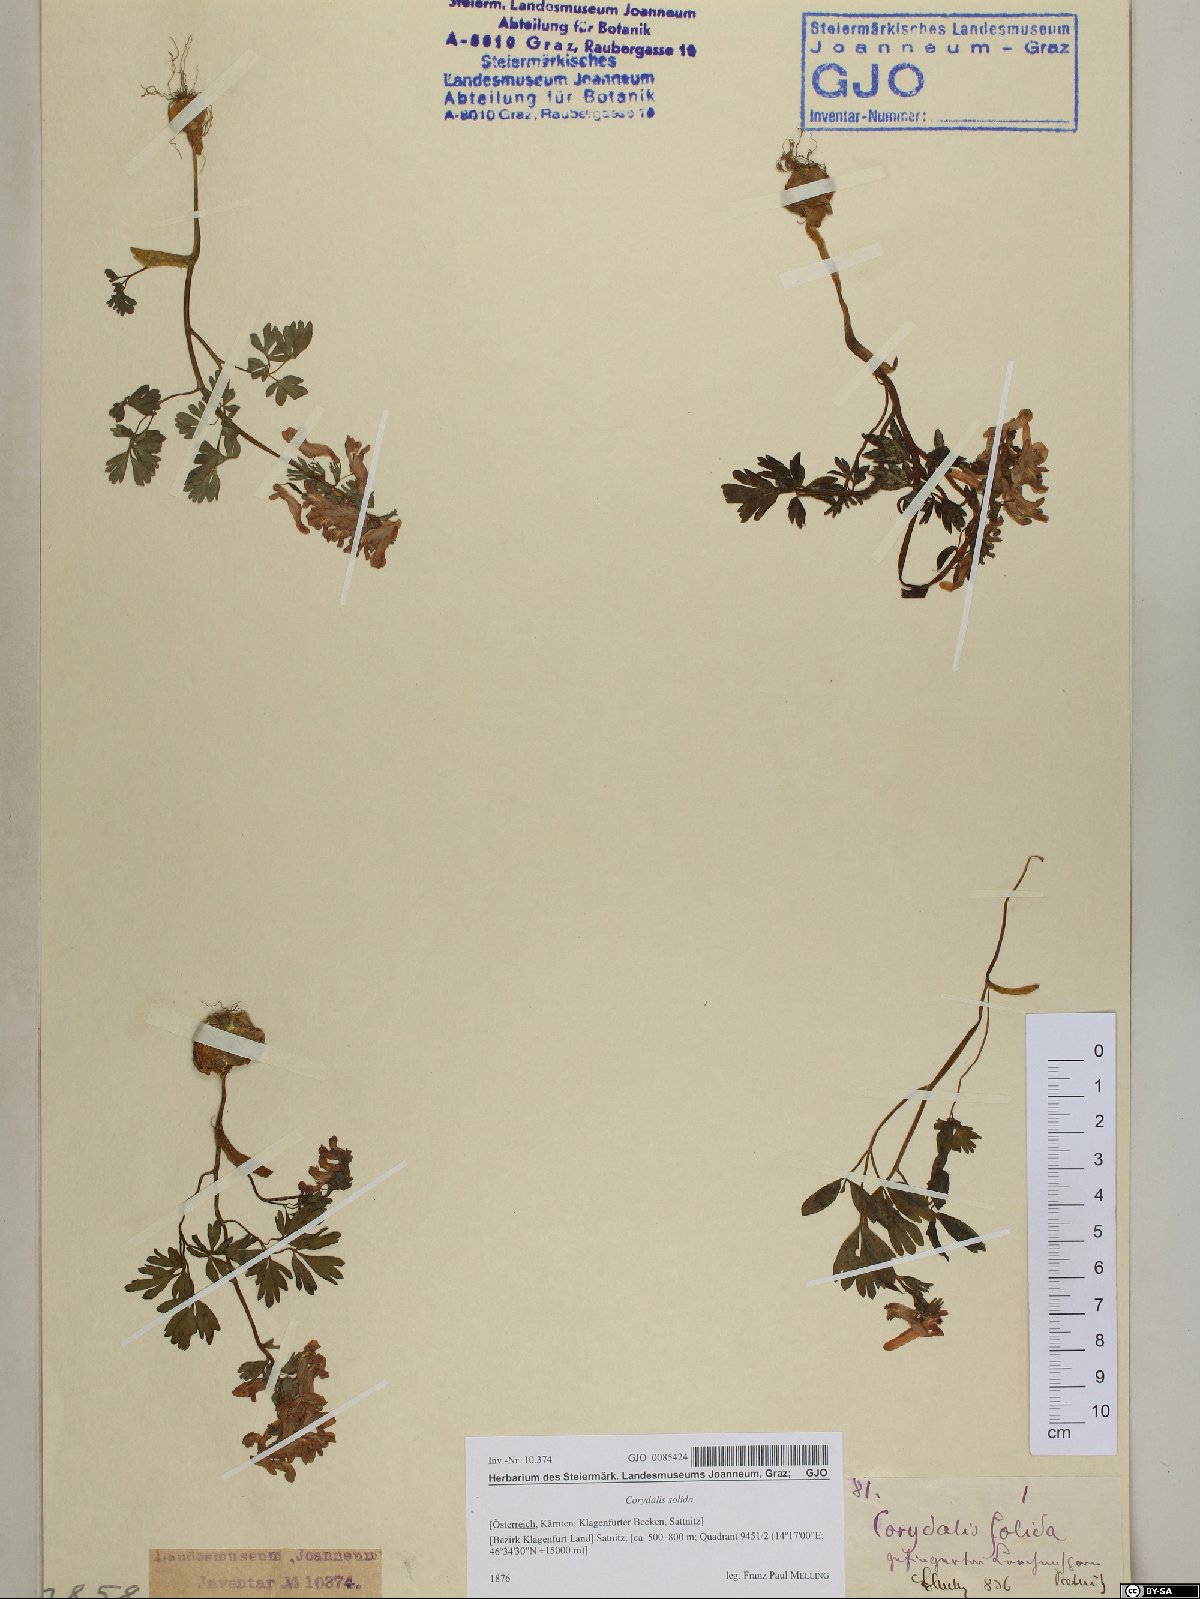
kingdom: Plantae
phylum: Tracheophyta
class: Magnoliopsida
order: Ranunculales
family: Papaveraceae
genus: Corydalis
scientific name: Corydalis solida
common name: Bird-in-a-bush
